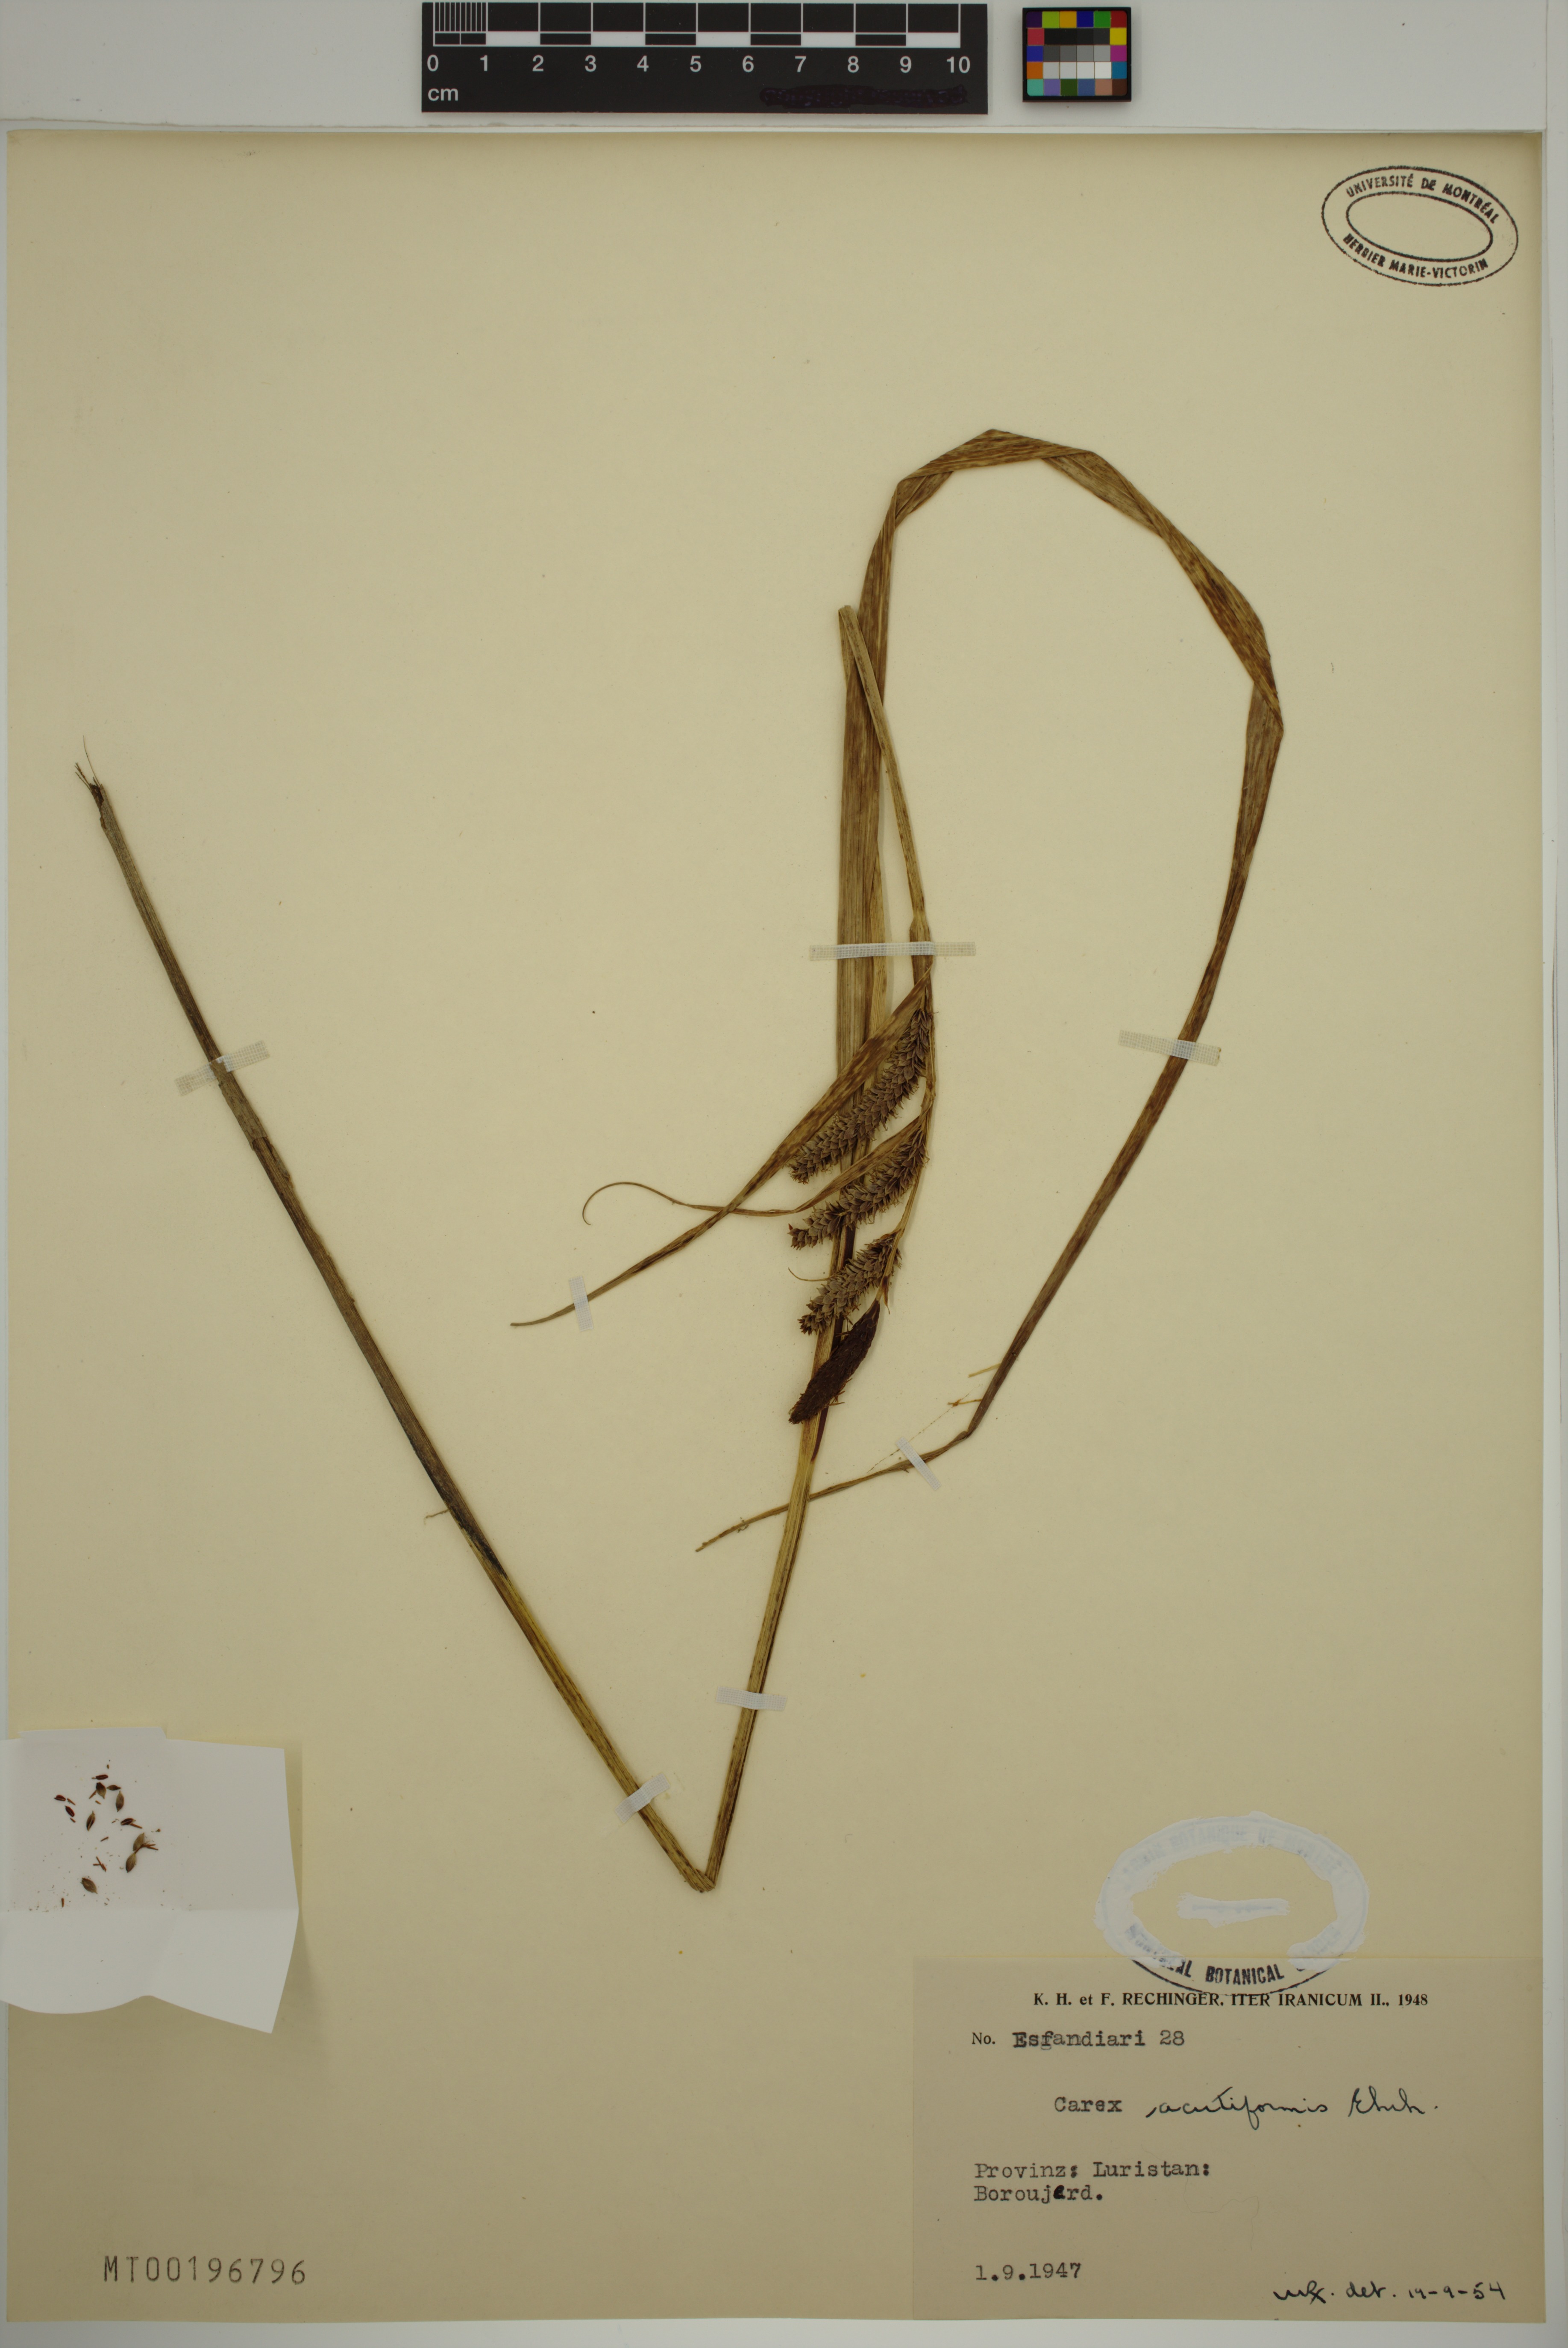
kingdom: Plantae
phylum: Tracheophyta
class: Liliopsida
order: Poales
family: Cyperaceae
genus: Carex
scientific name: Carex acutiformis
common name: Lesser pond-sedge
